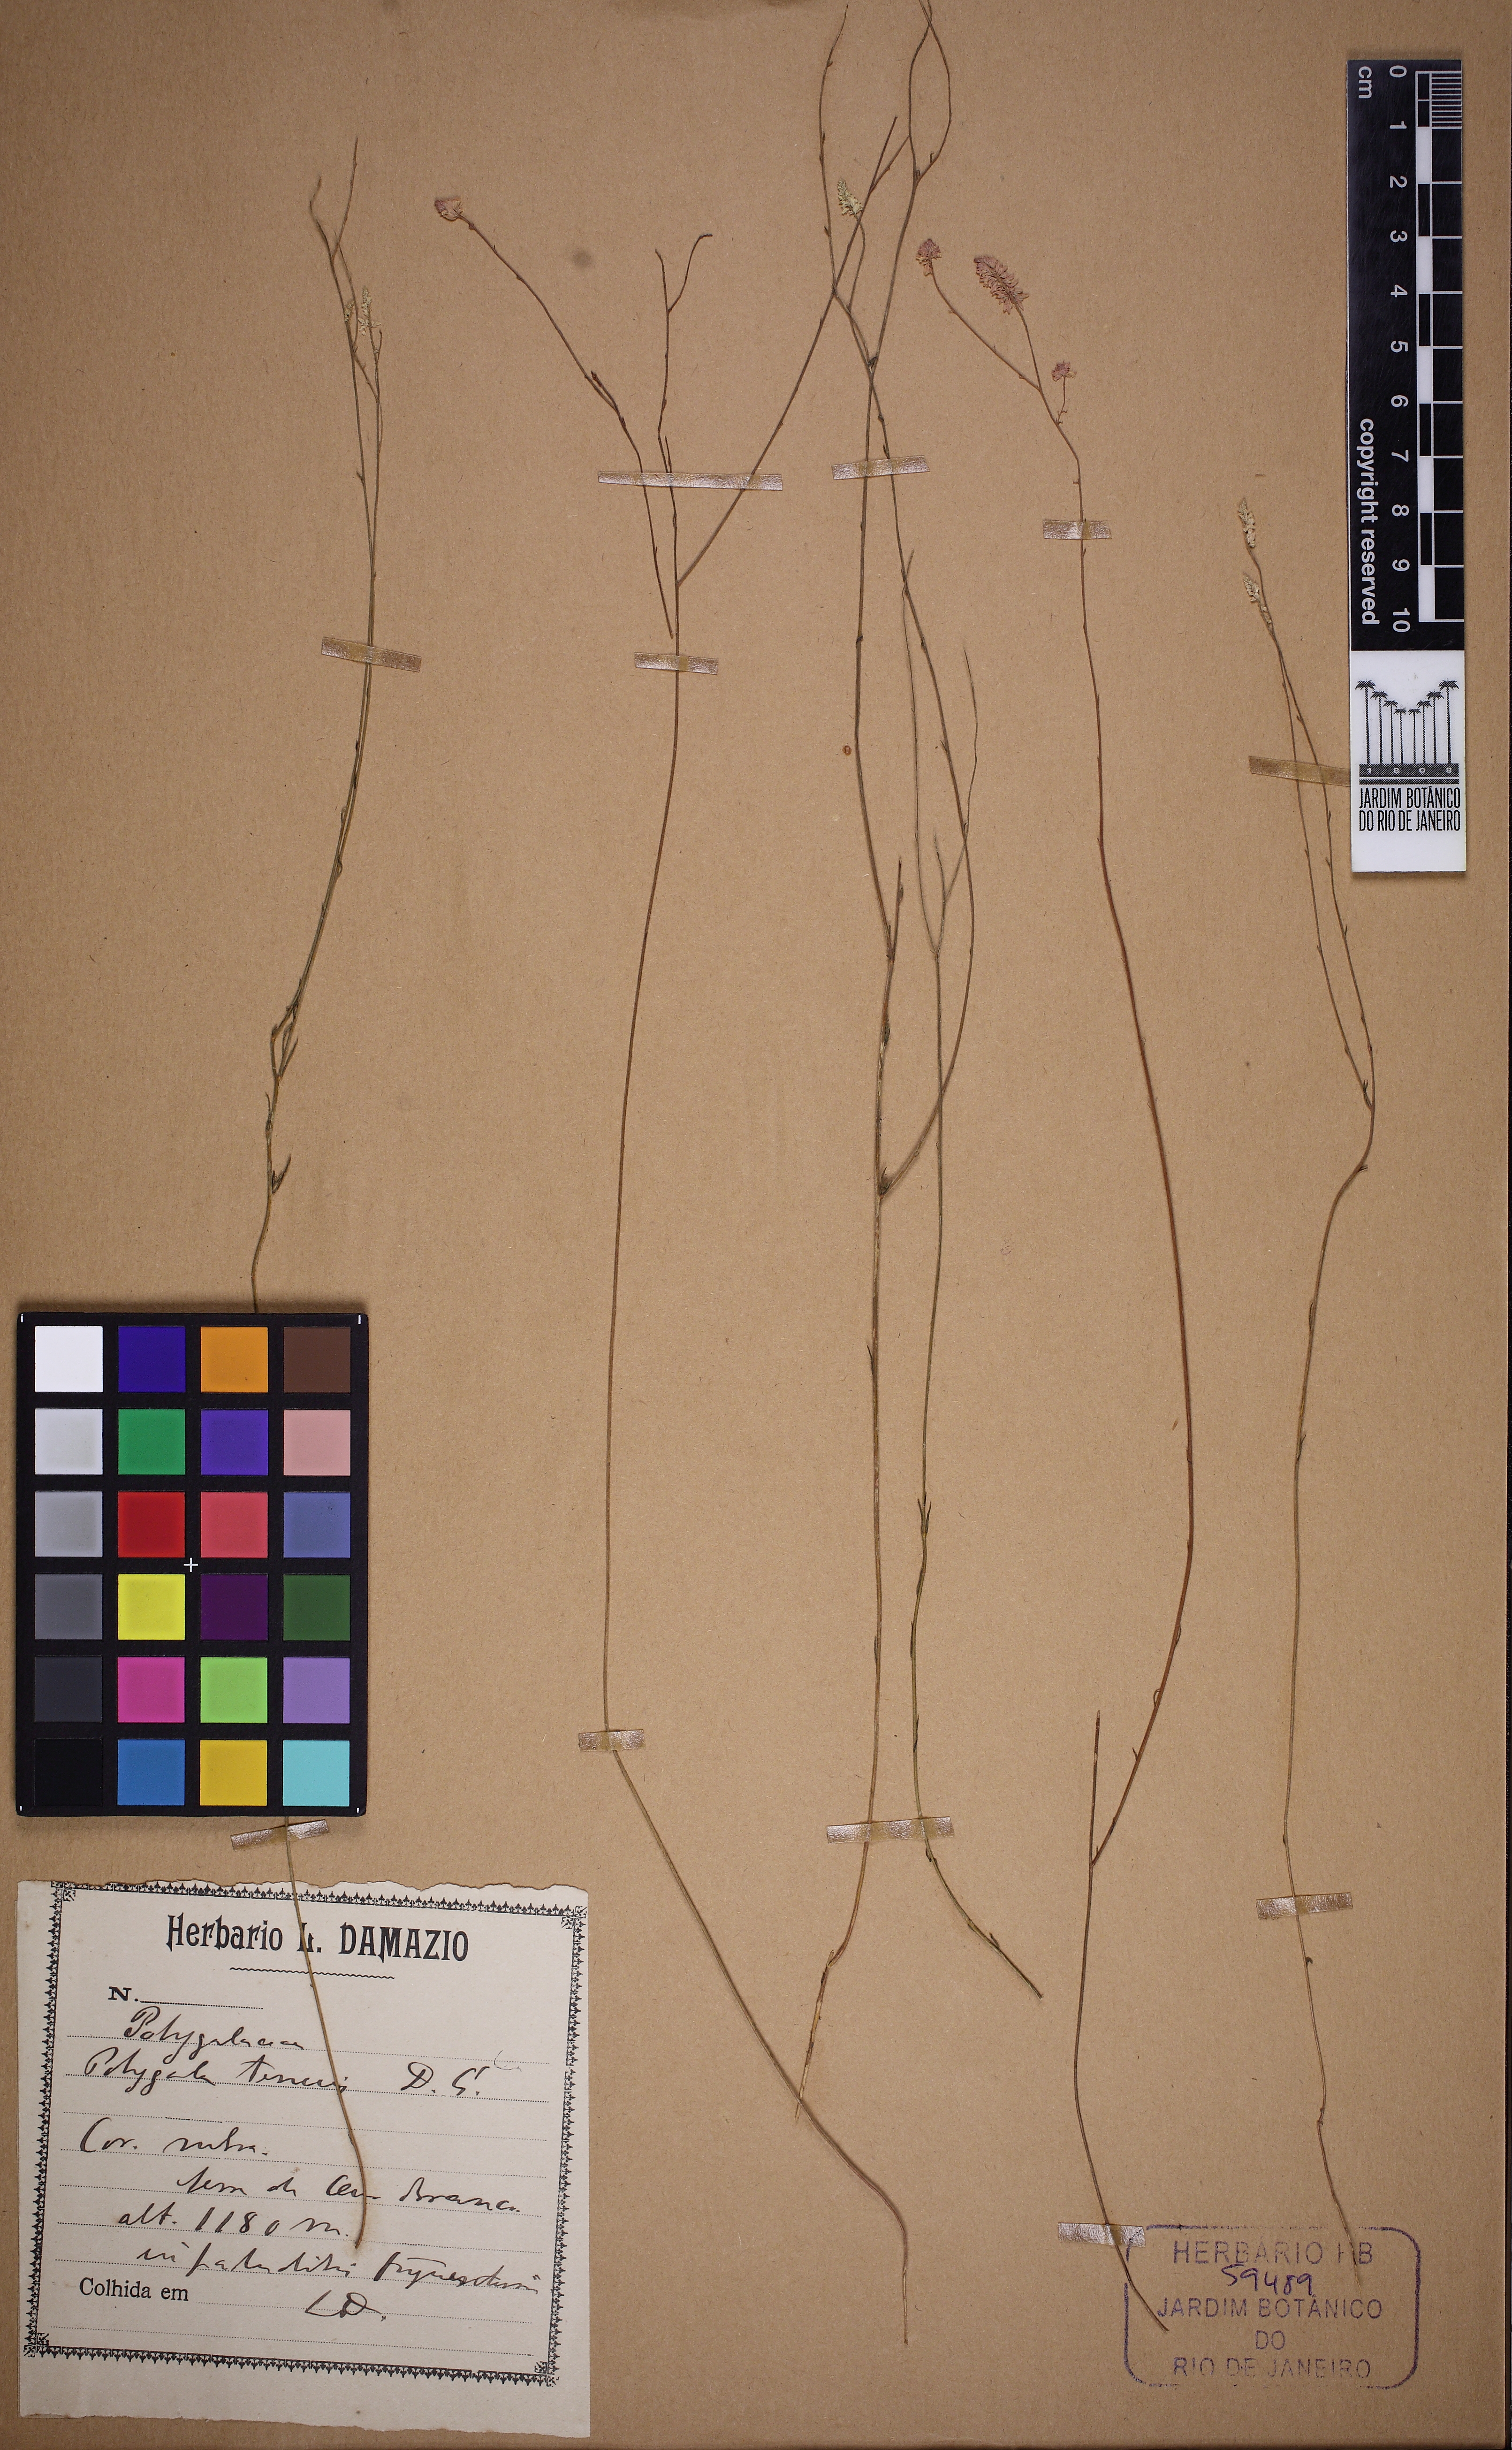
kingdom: Plantae
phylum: Tracheophyta
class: Magnoliopsida
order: Fabales
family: Polygalaceae
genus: Polygala
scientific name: Polygala tenuis
